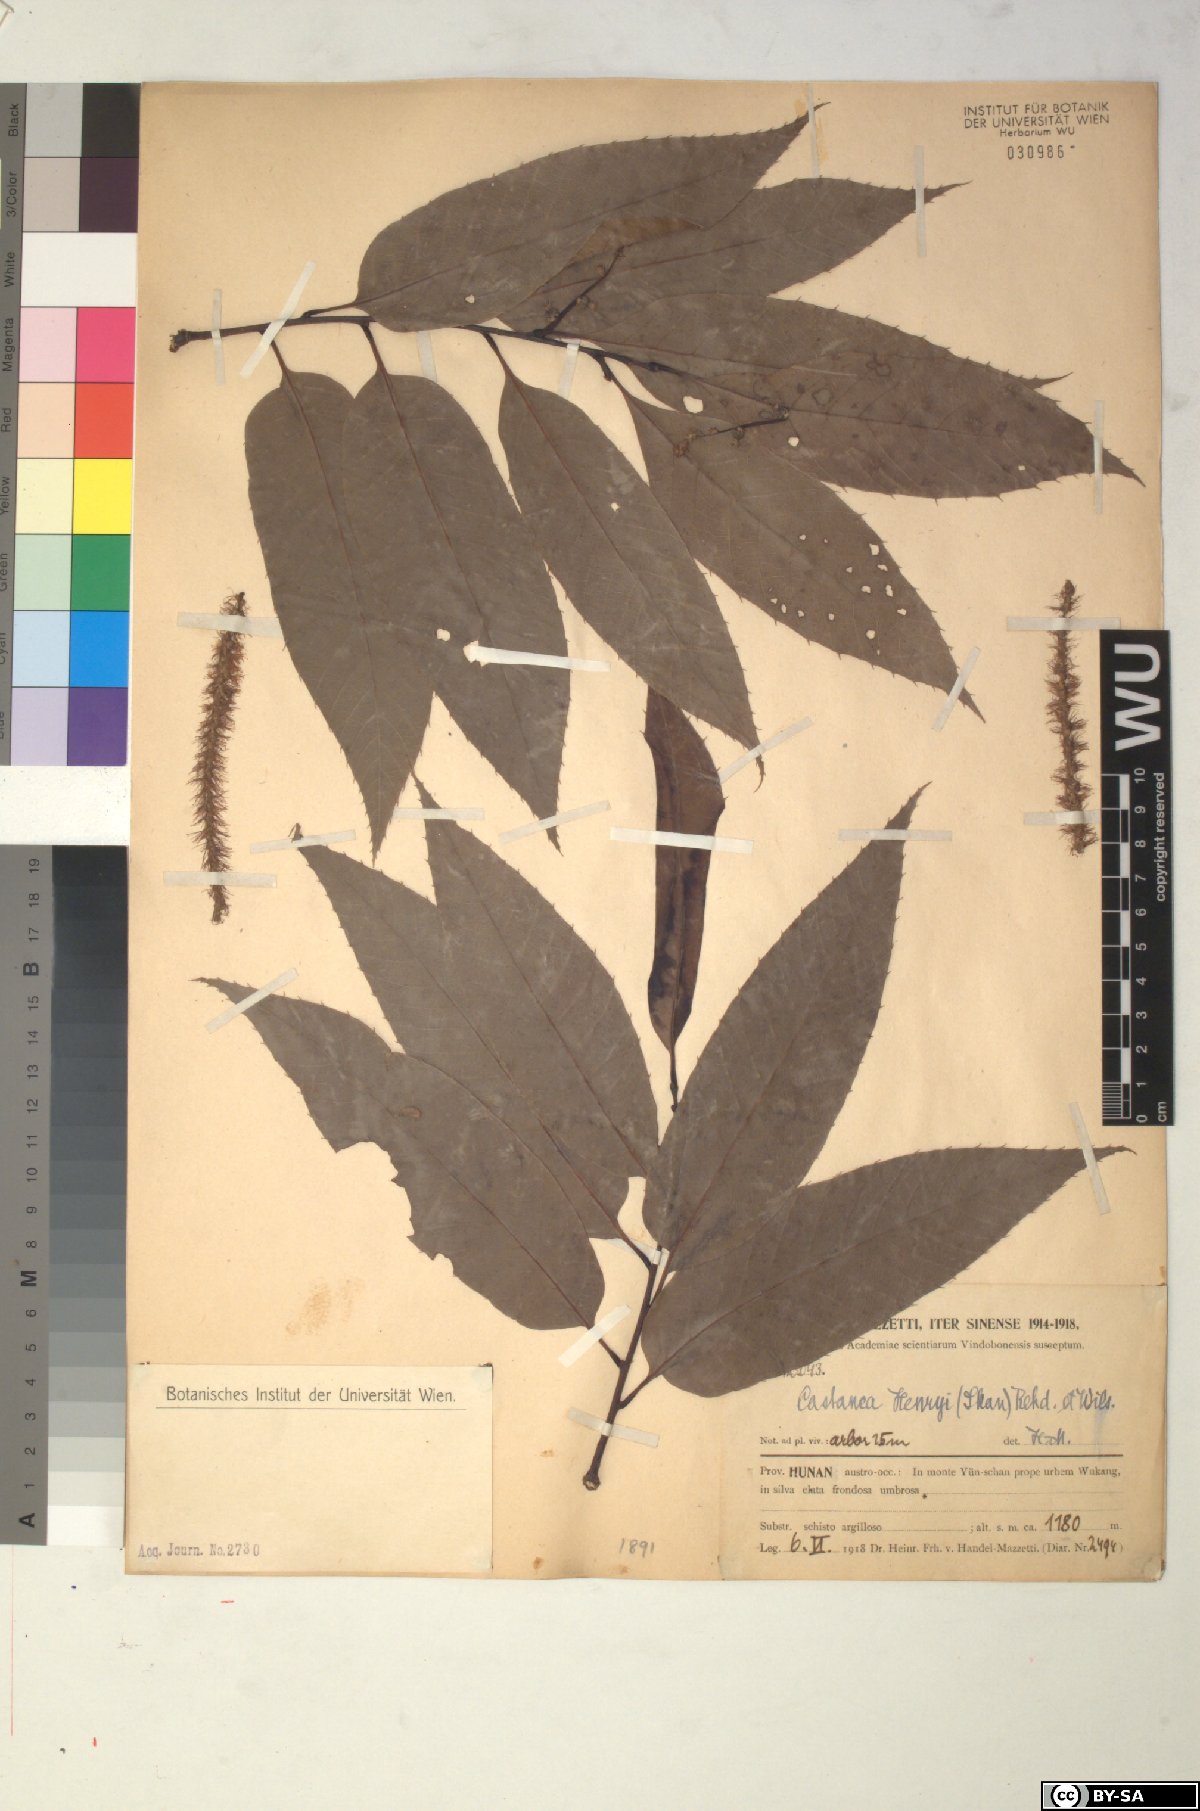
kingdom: Plantae
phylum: Tracheophyta
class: Magnoliopsida
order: Fagales
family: Fagaceae
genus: Castanea
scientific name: Castanea henryi
